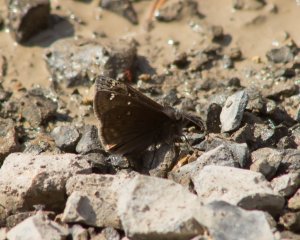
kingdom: Animalia
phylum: Arthropoda
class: Insecta
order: Lepidoptera
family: Hesperiidae
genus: Gesta
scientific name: Gesta
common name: Juvenal's Duskywing
